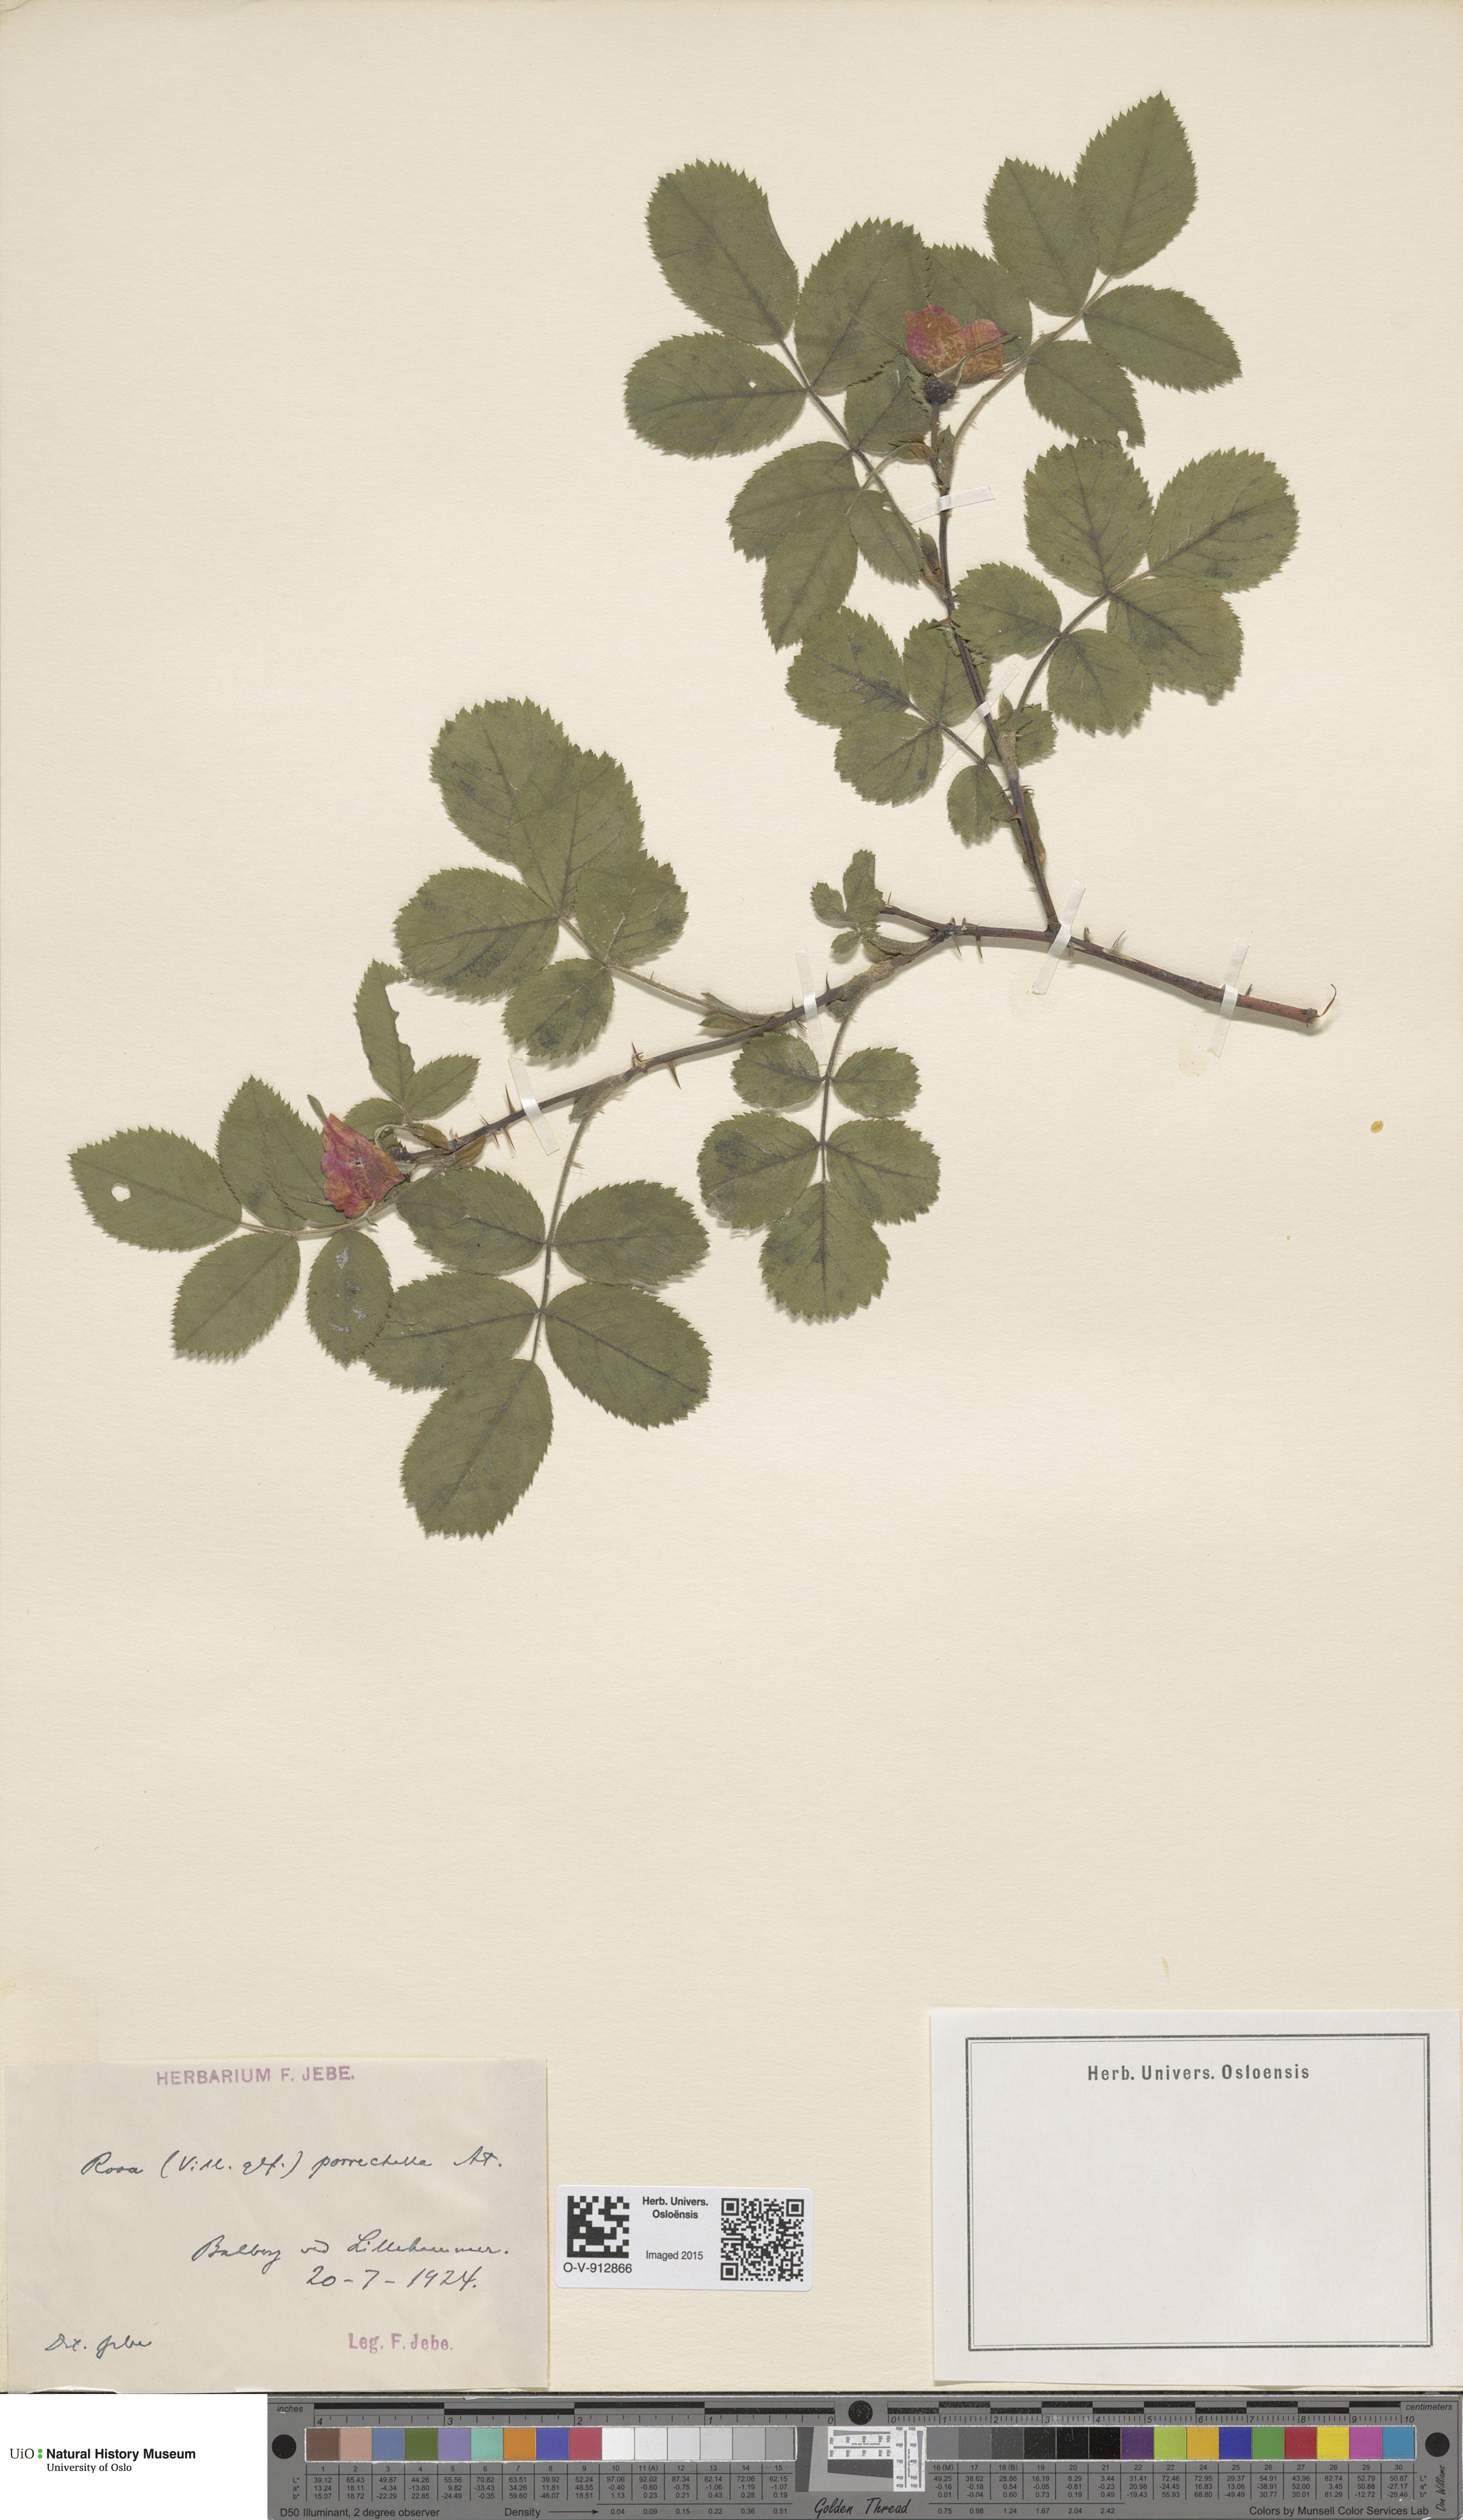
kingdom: Plantae
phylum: Tracheophyta
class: Magnoliopsida
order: Rosales
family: Rosaceae
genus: Rosa
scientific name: Rosa mollis
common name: Rose
